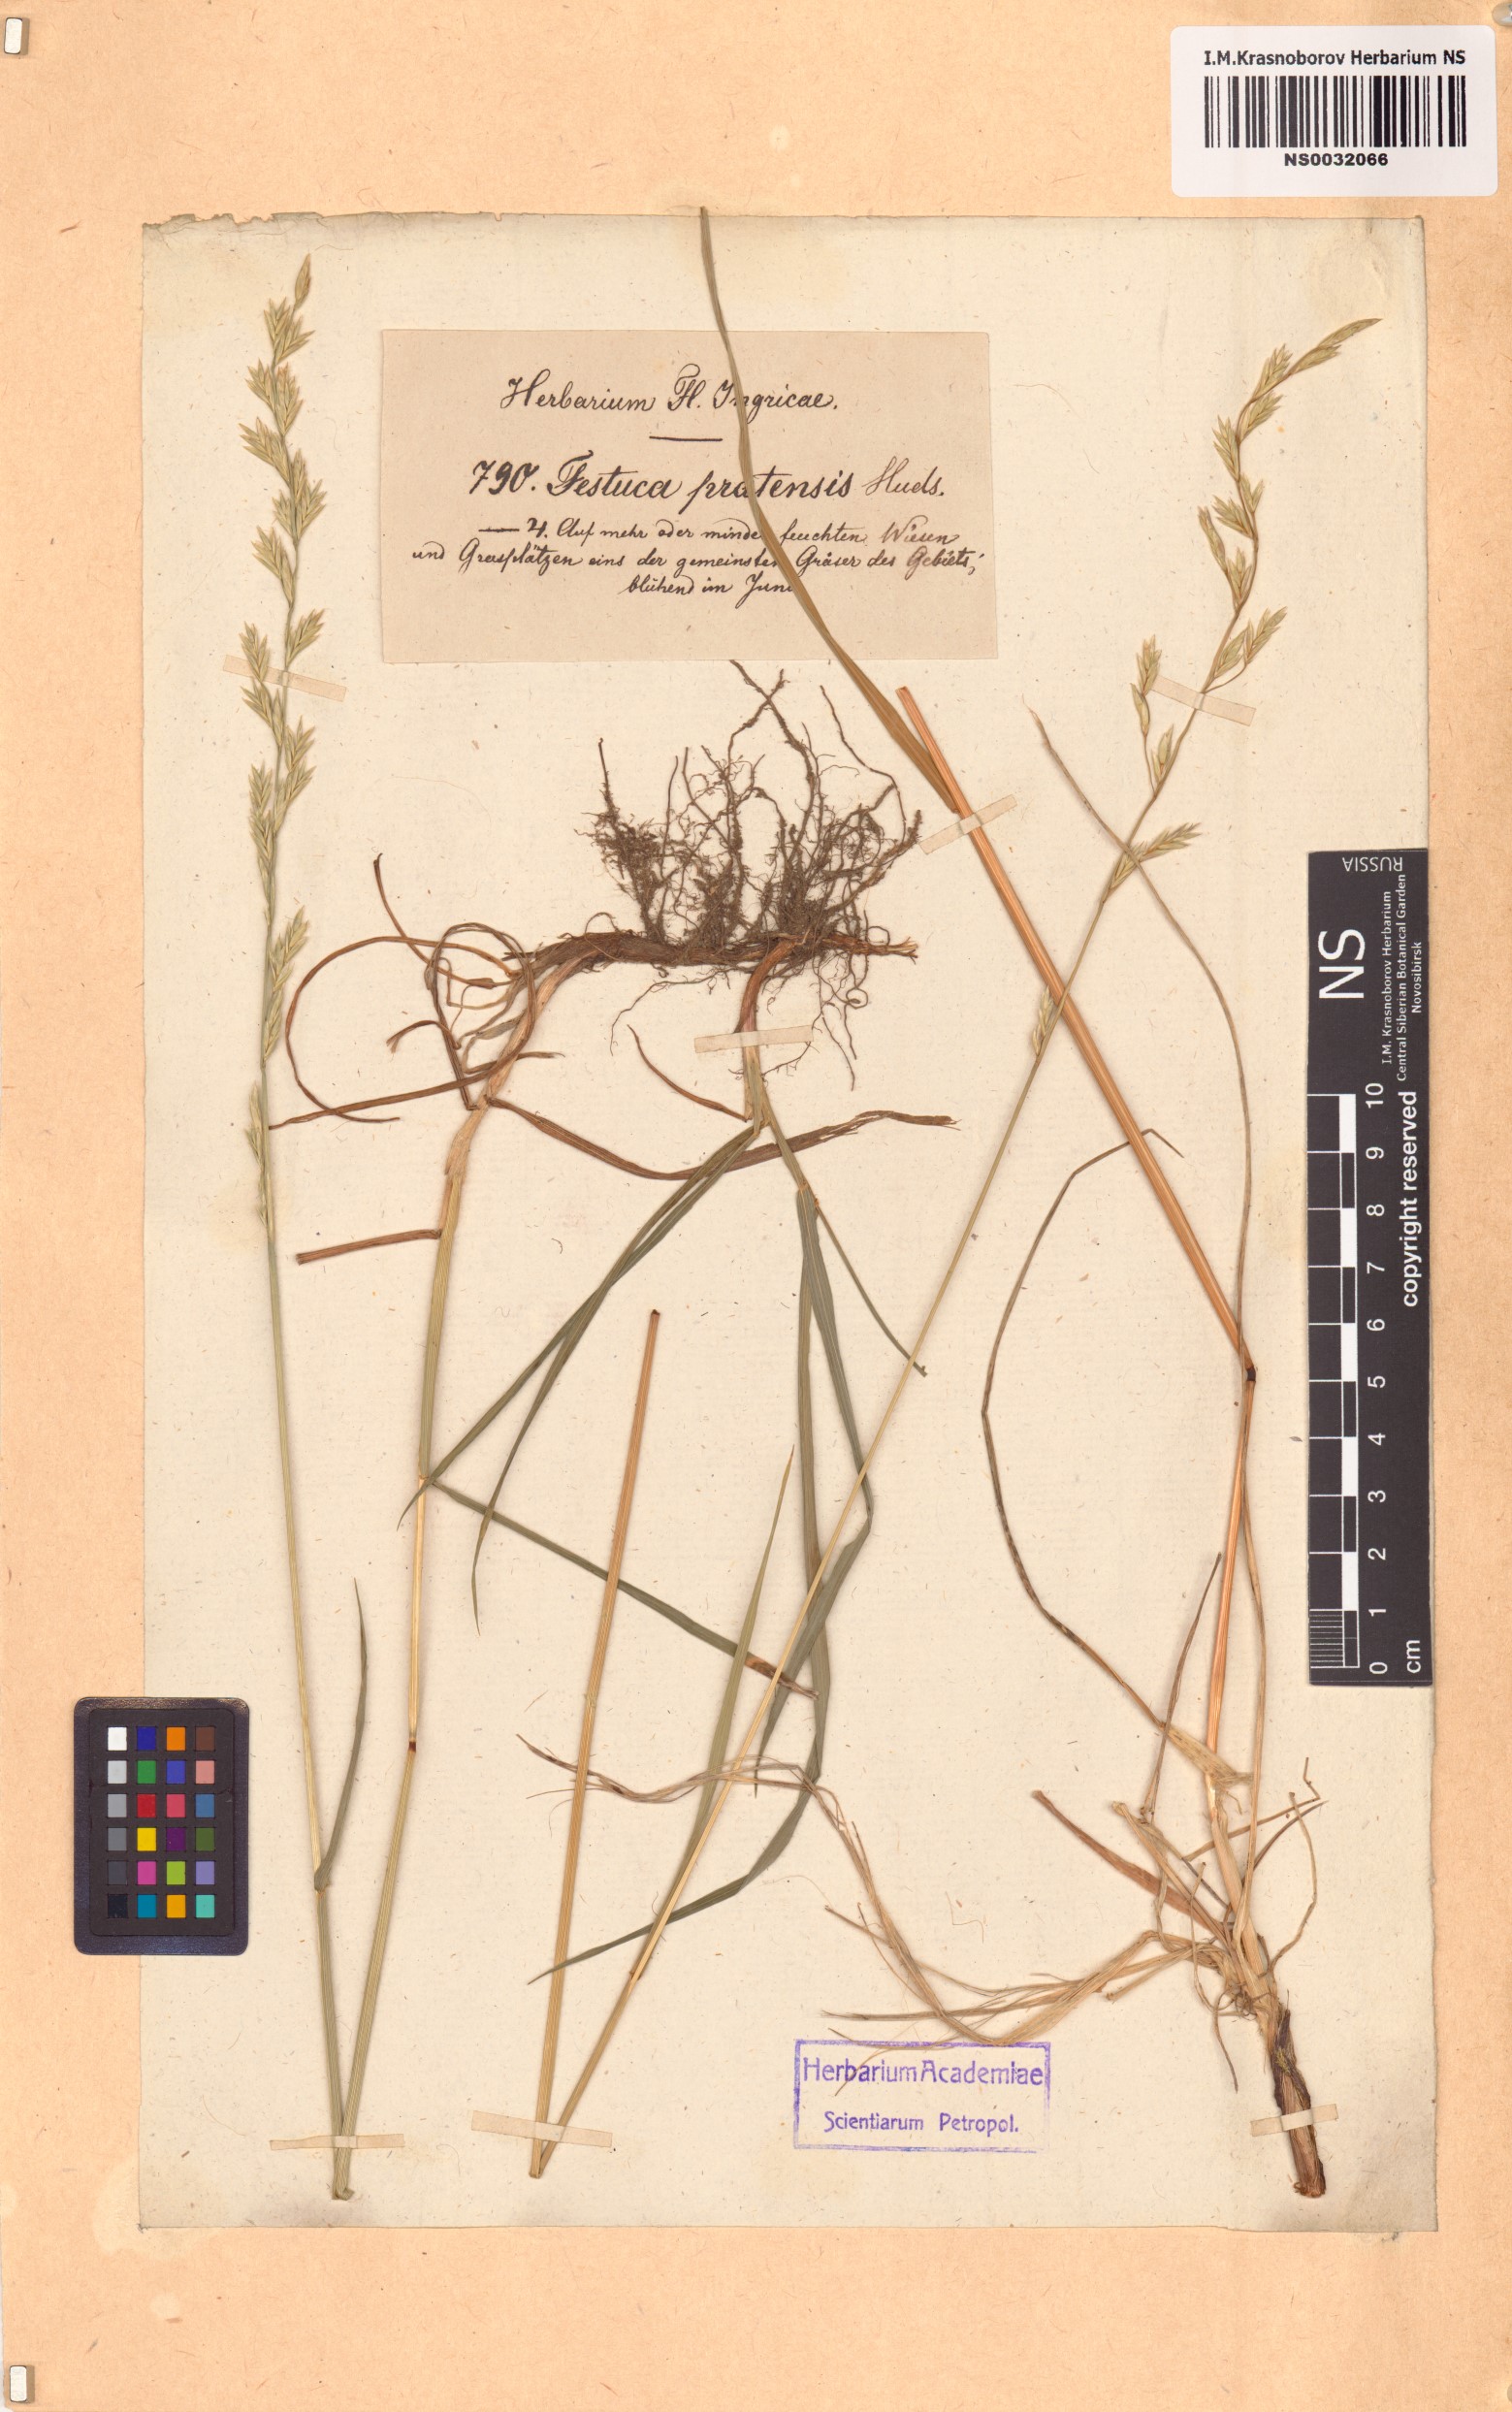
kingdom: Plantae
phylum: Tracheophyta
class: Liliopsida
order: Poales
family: Poaceae
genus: Lolium
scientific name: Lolium pratense
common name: Dover grass
